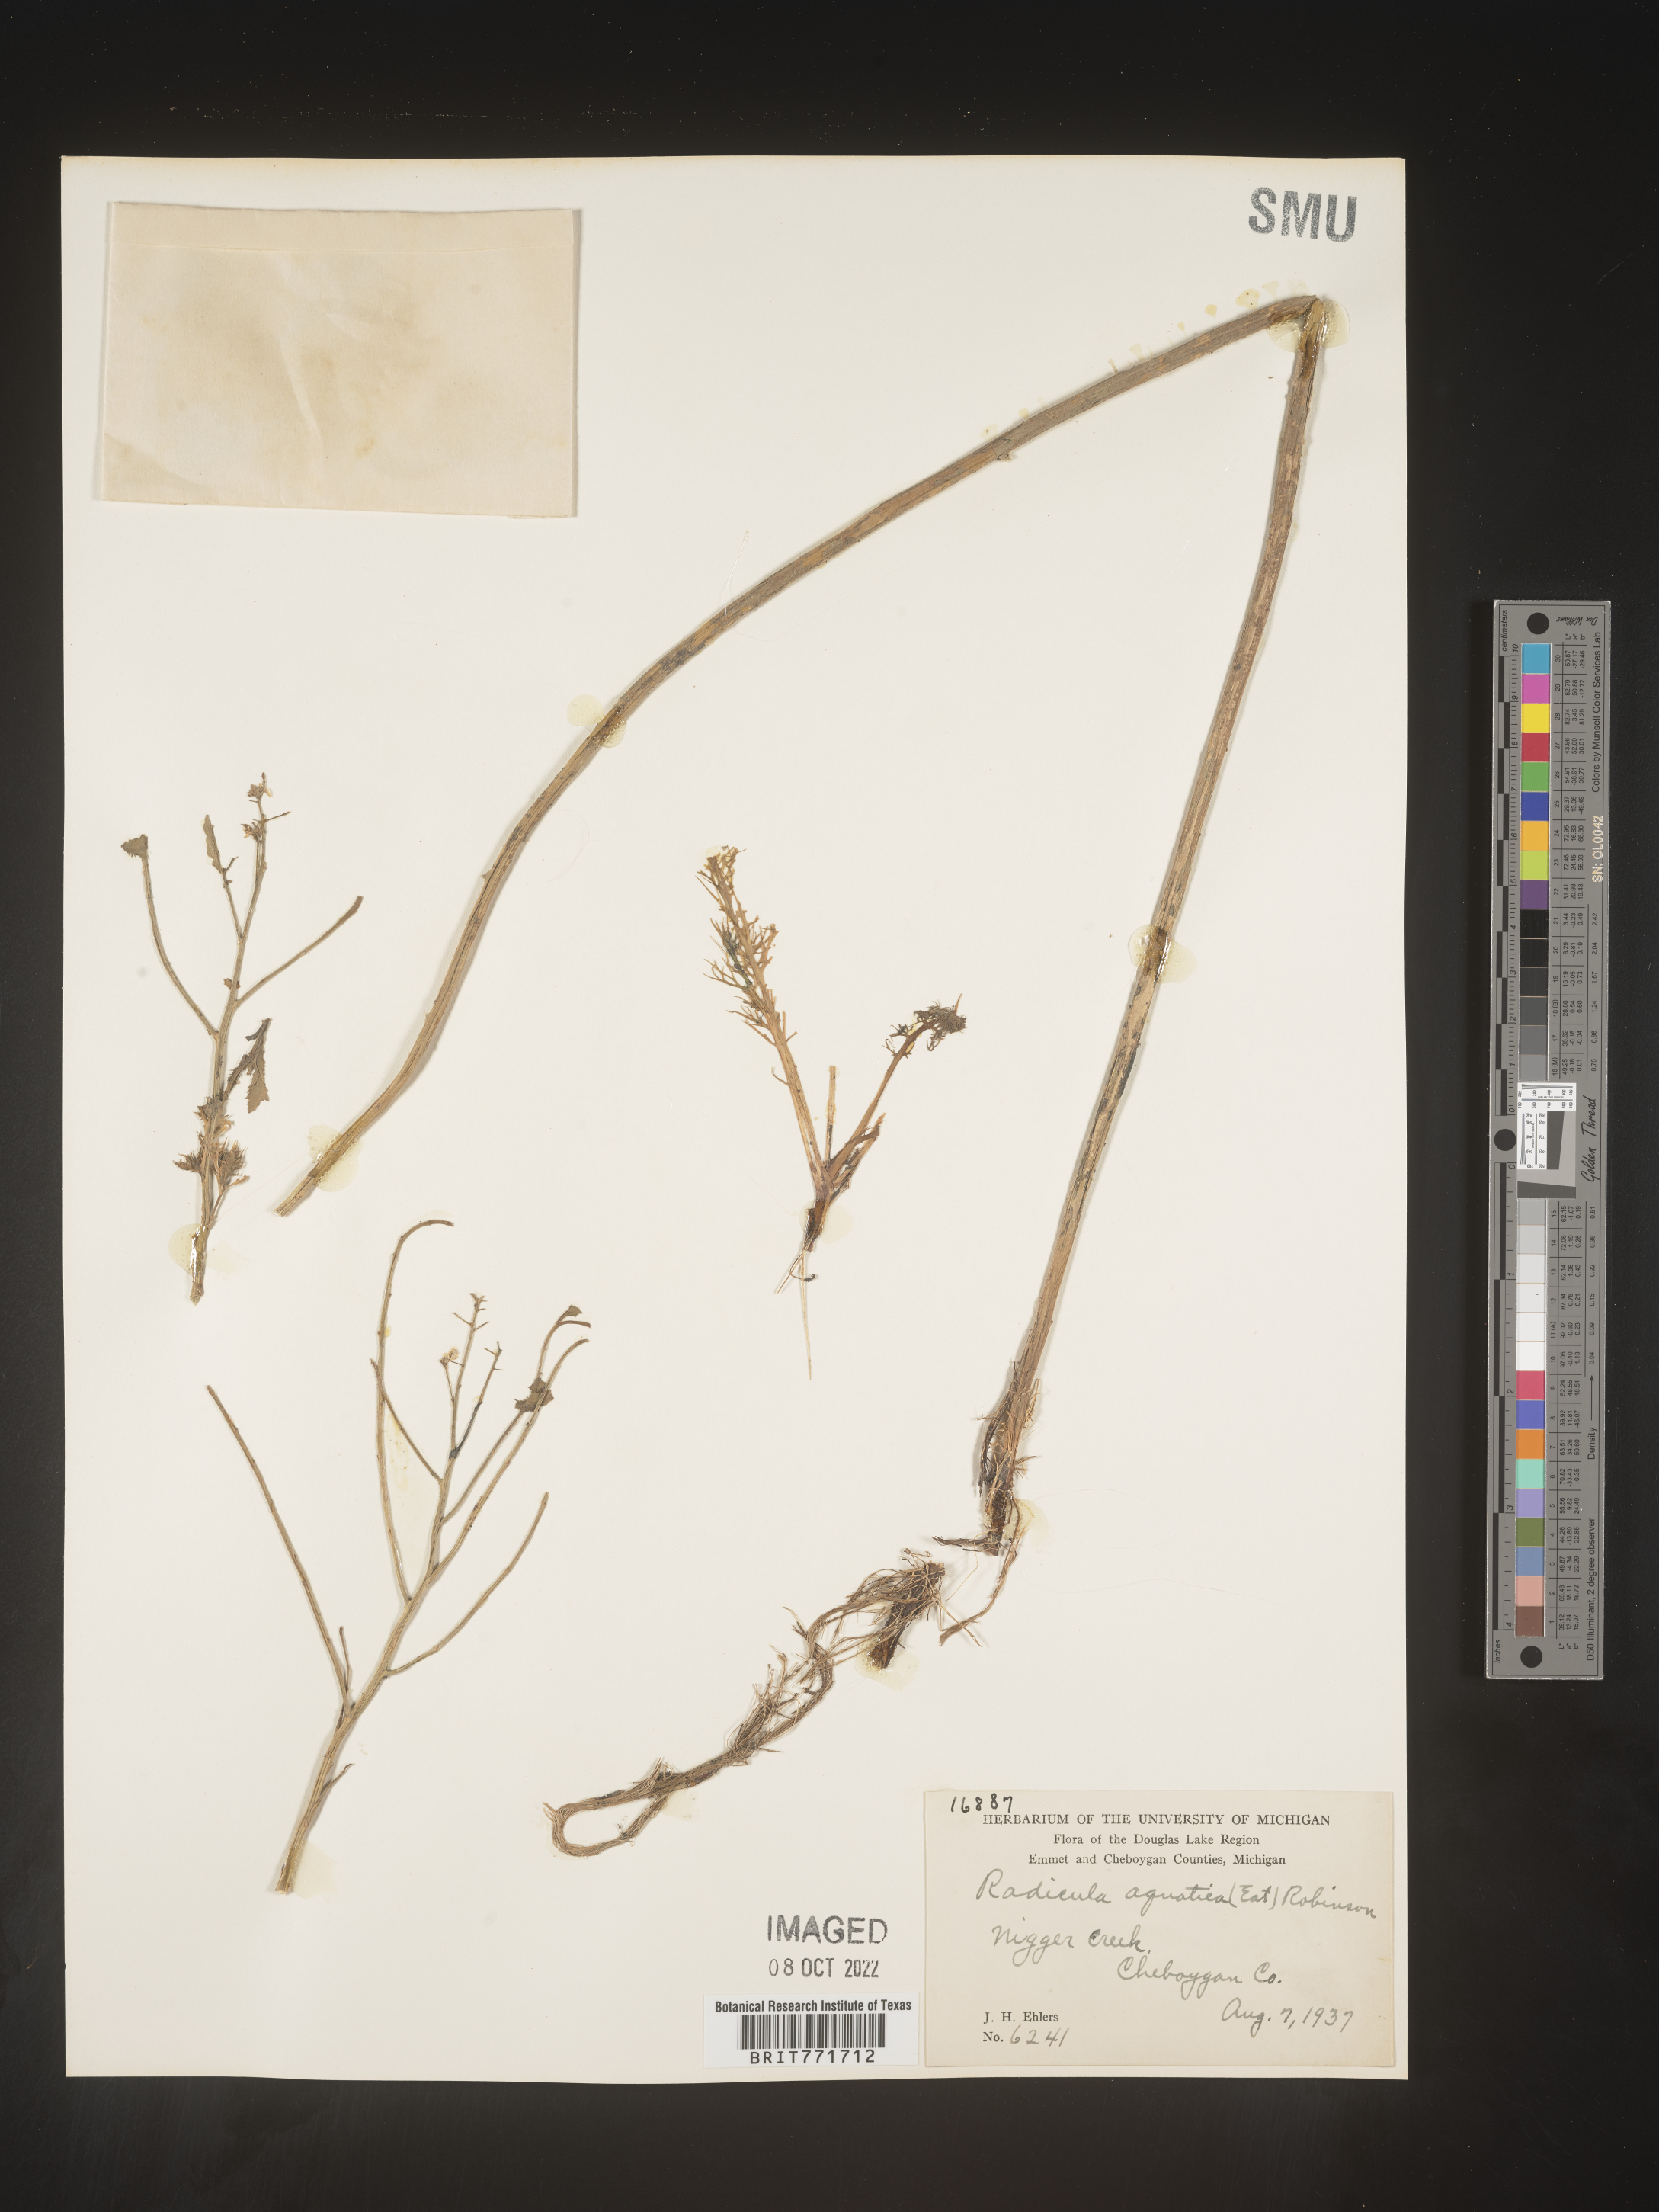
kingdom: Plantae
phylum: Tracheophyta
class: Magnoliopsida
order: Brassicales
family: Brassicaceae
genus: Armoracia
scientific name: Armoracia
